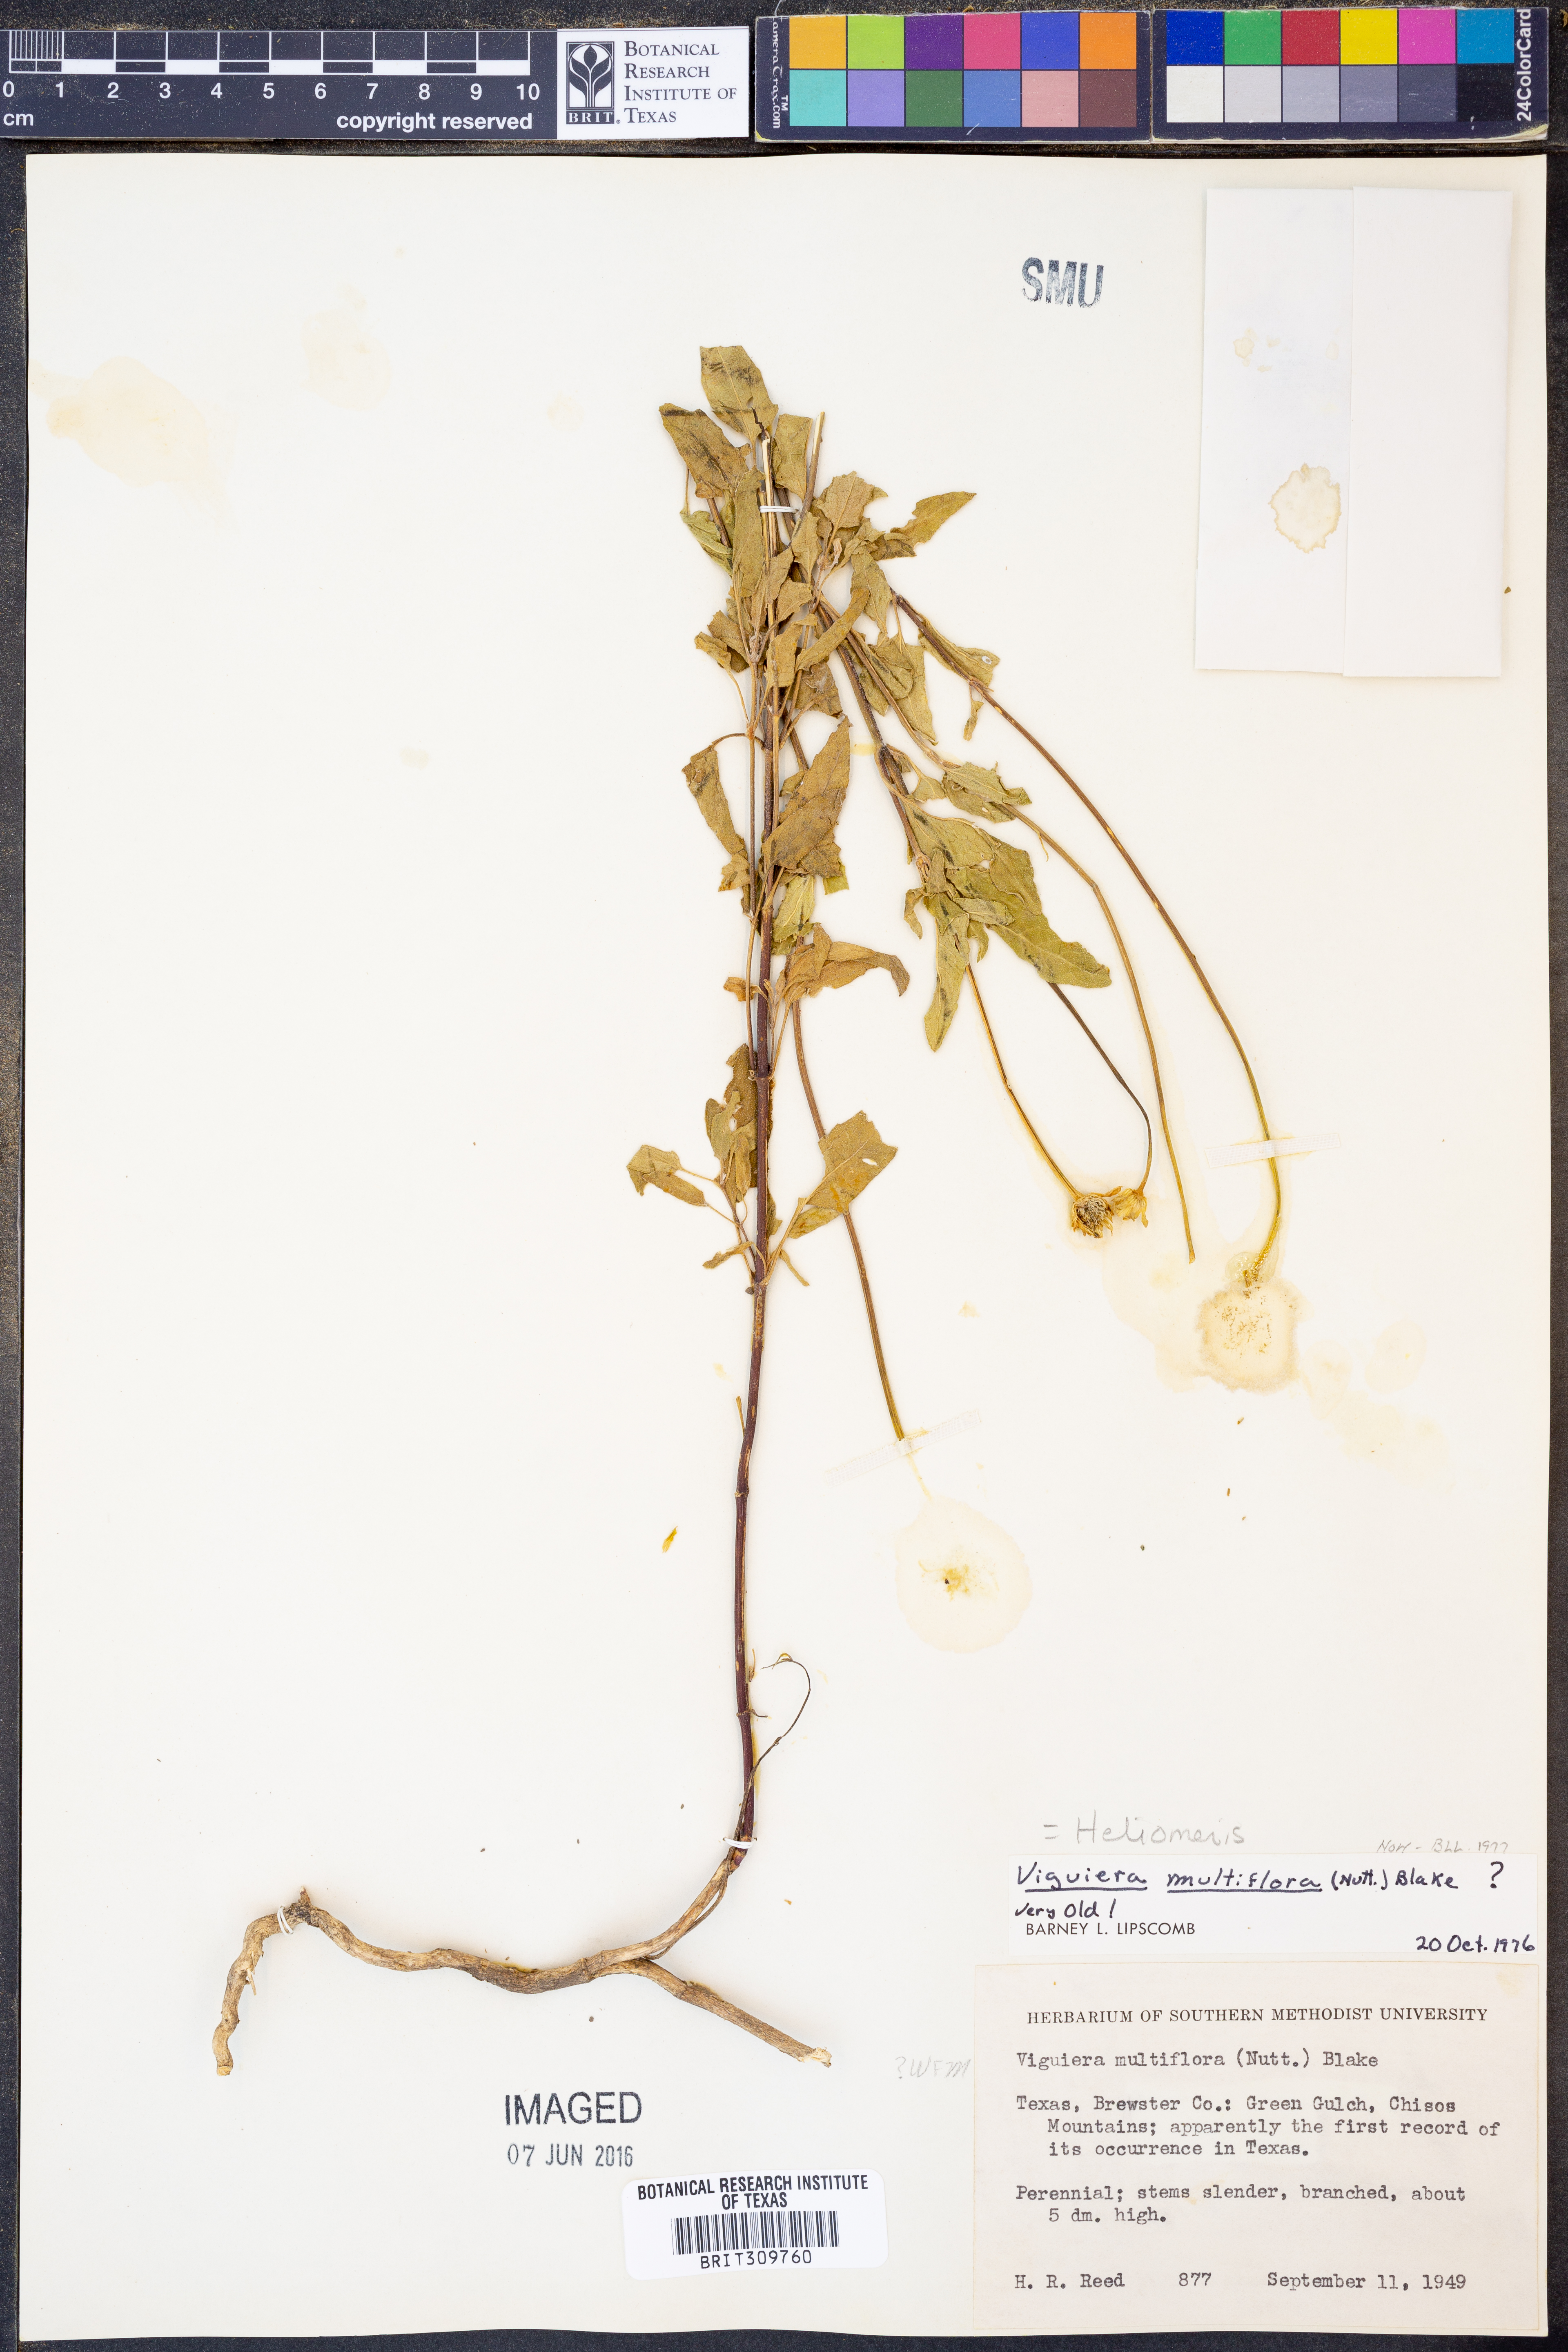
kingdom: Plantae
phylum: Tracheophyta
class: Magnoliopsida
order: Asterales
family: Asteraceae
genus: Heliomeris
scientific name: Heliomeris multiflora
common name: Showy goldeneye
